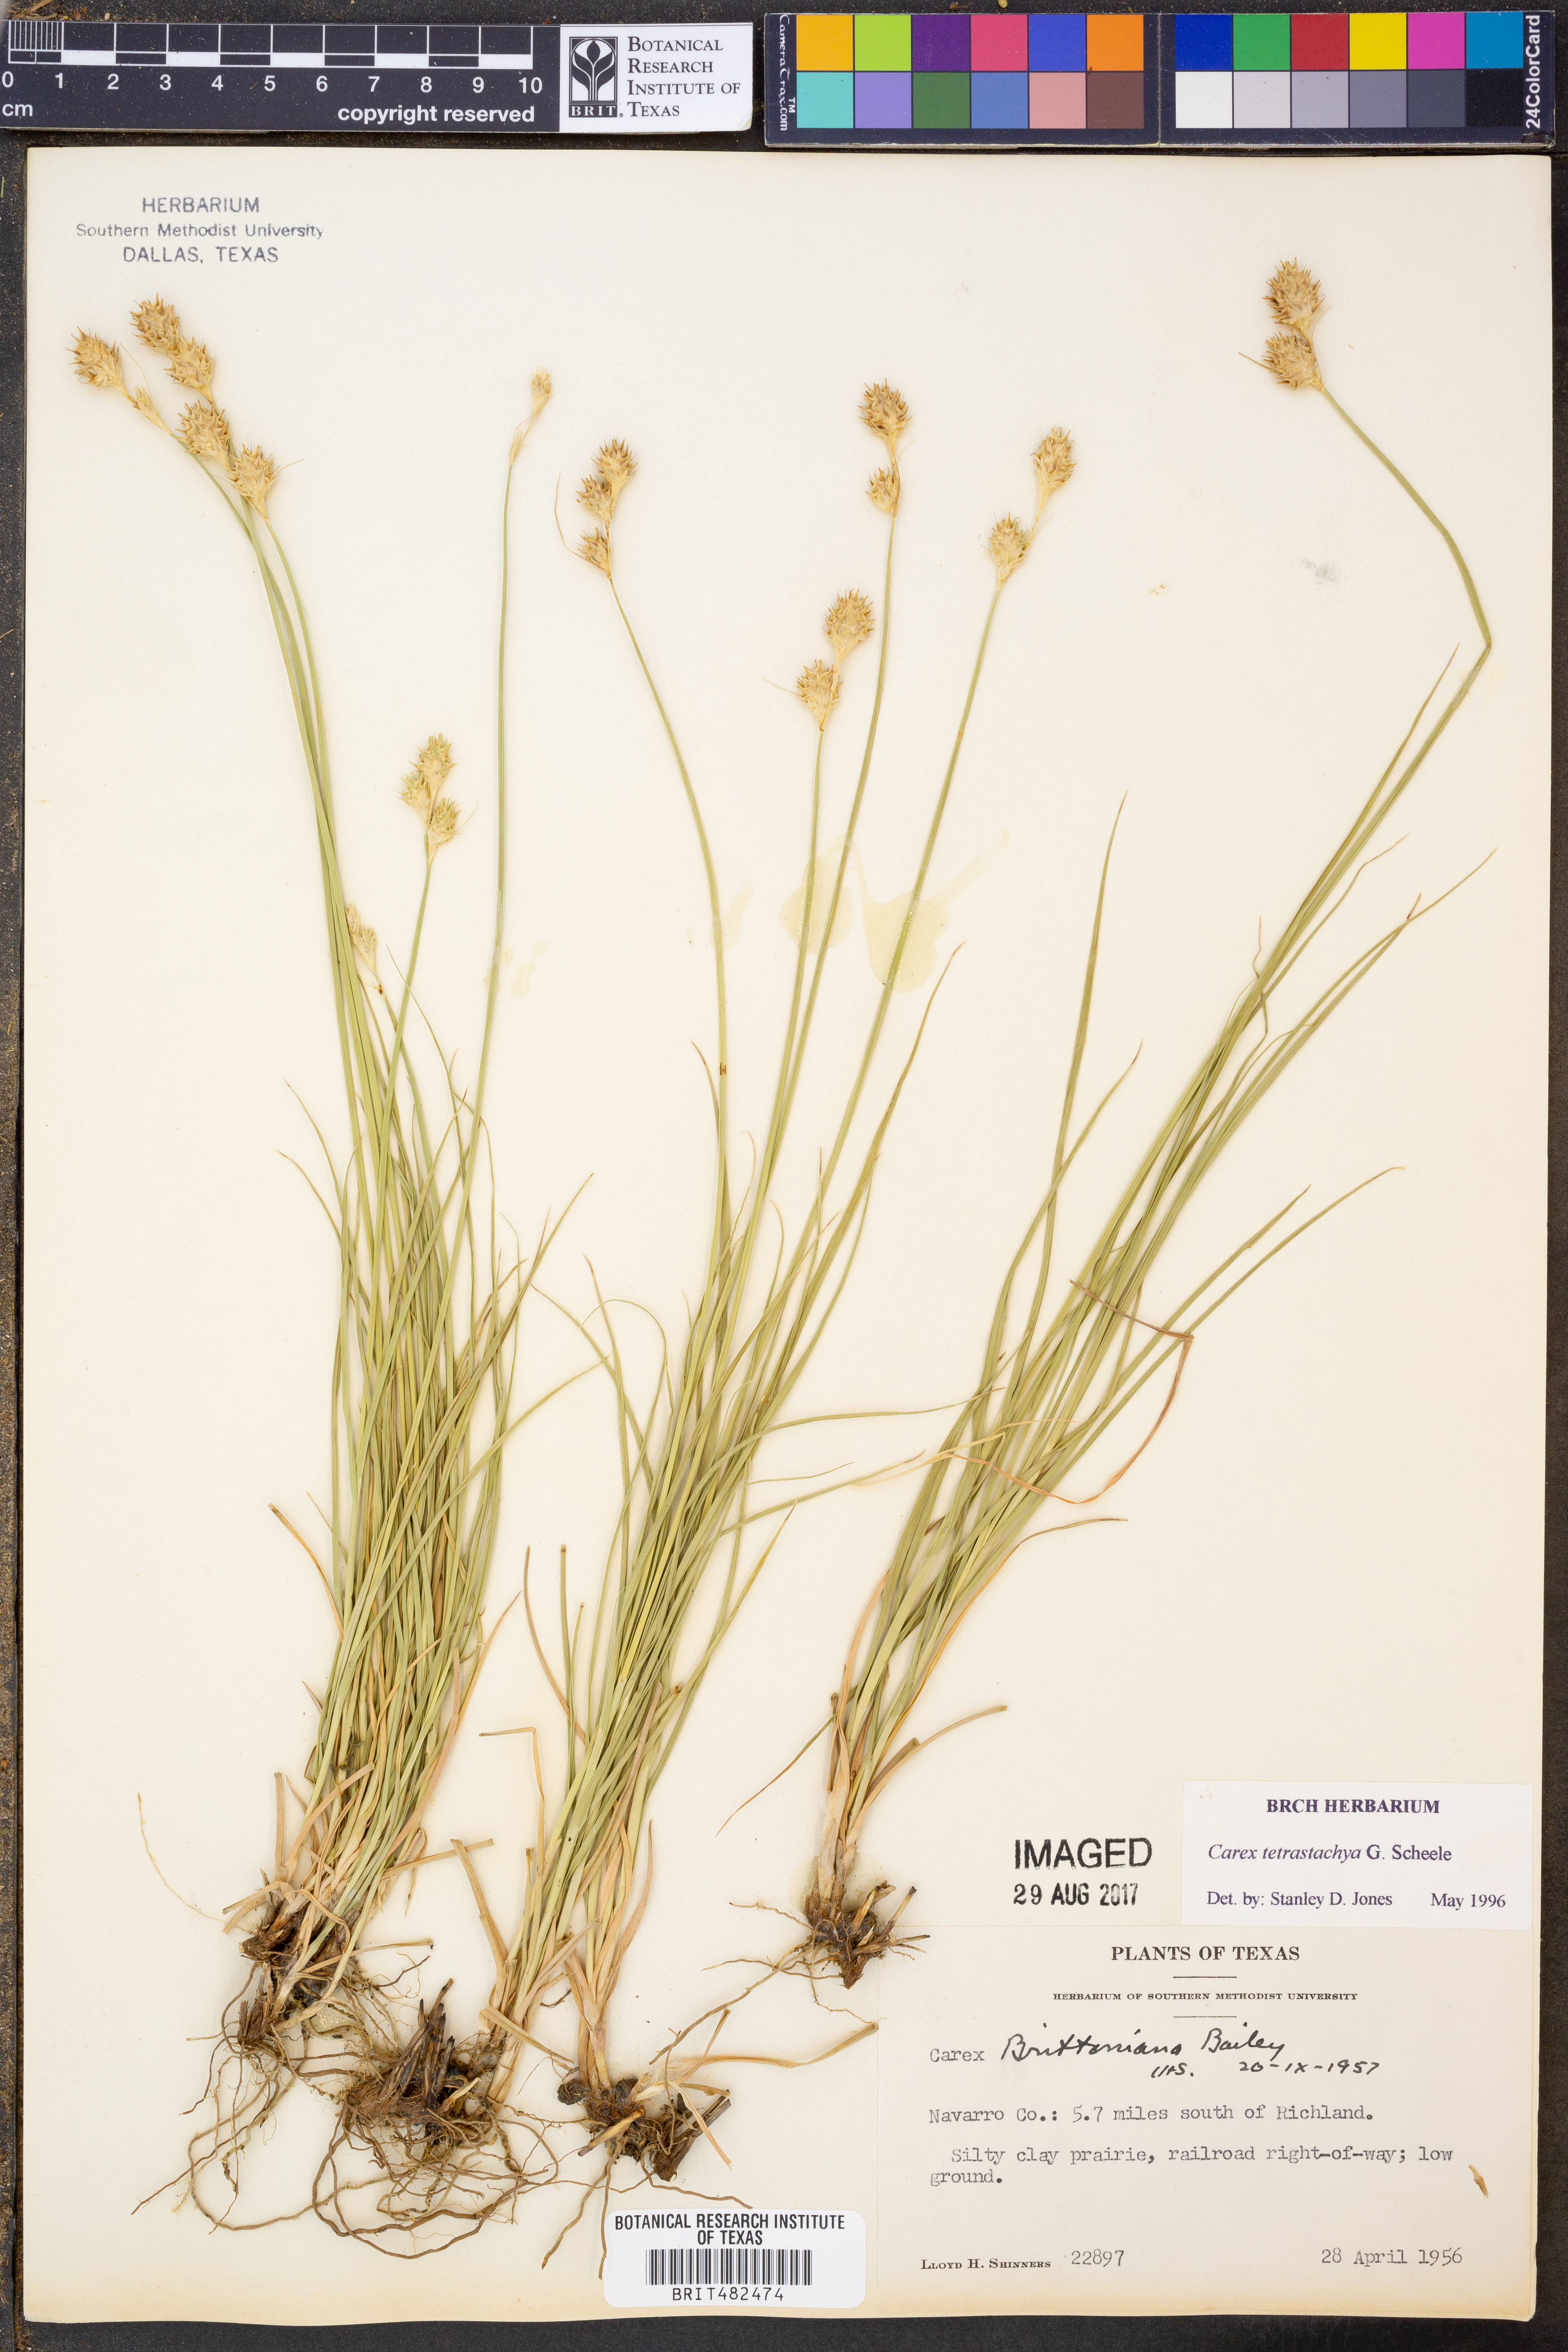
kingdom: Plantae
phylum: Tracheophyta
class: Liliopsida
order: Poales
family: Cyperaceae
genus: Carex
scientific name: Carex tetrastachya
